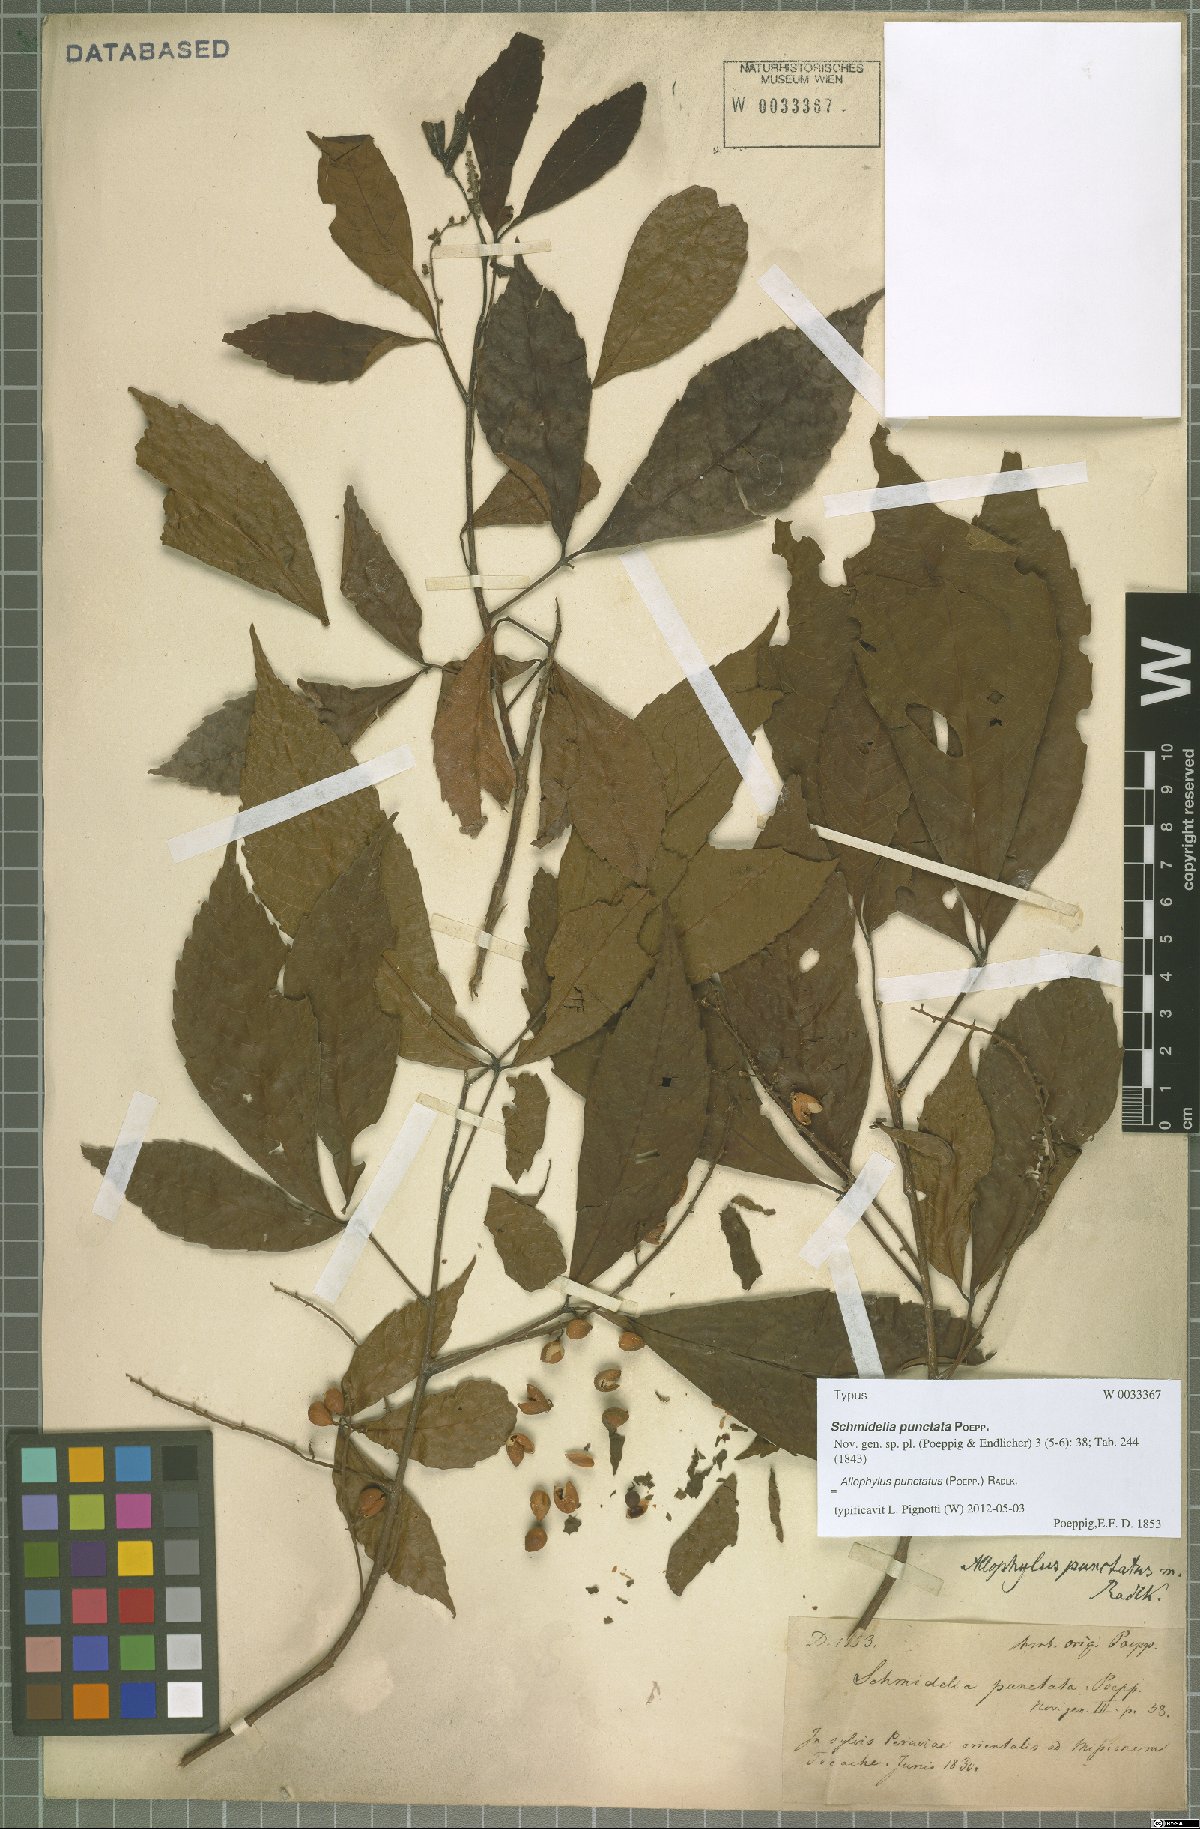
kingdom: Plantae
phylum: Tracheophyta
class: Magnoliopsida
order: Sapindales
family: Sapindaceae
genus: Allophylus
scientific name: Allophylus punctatus
